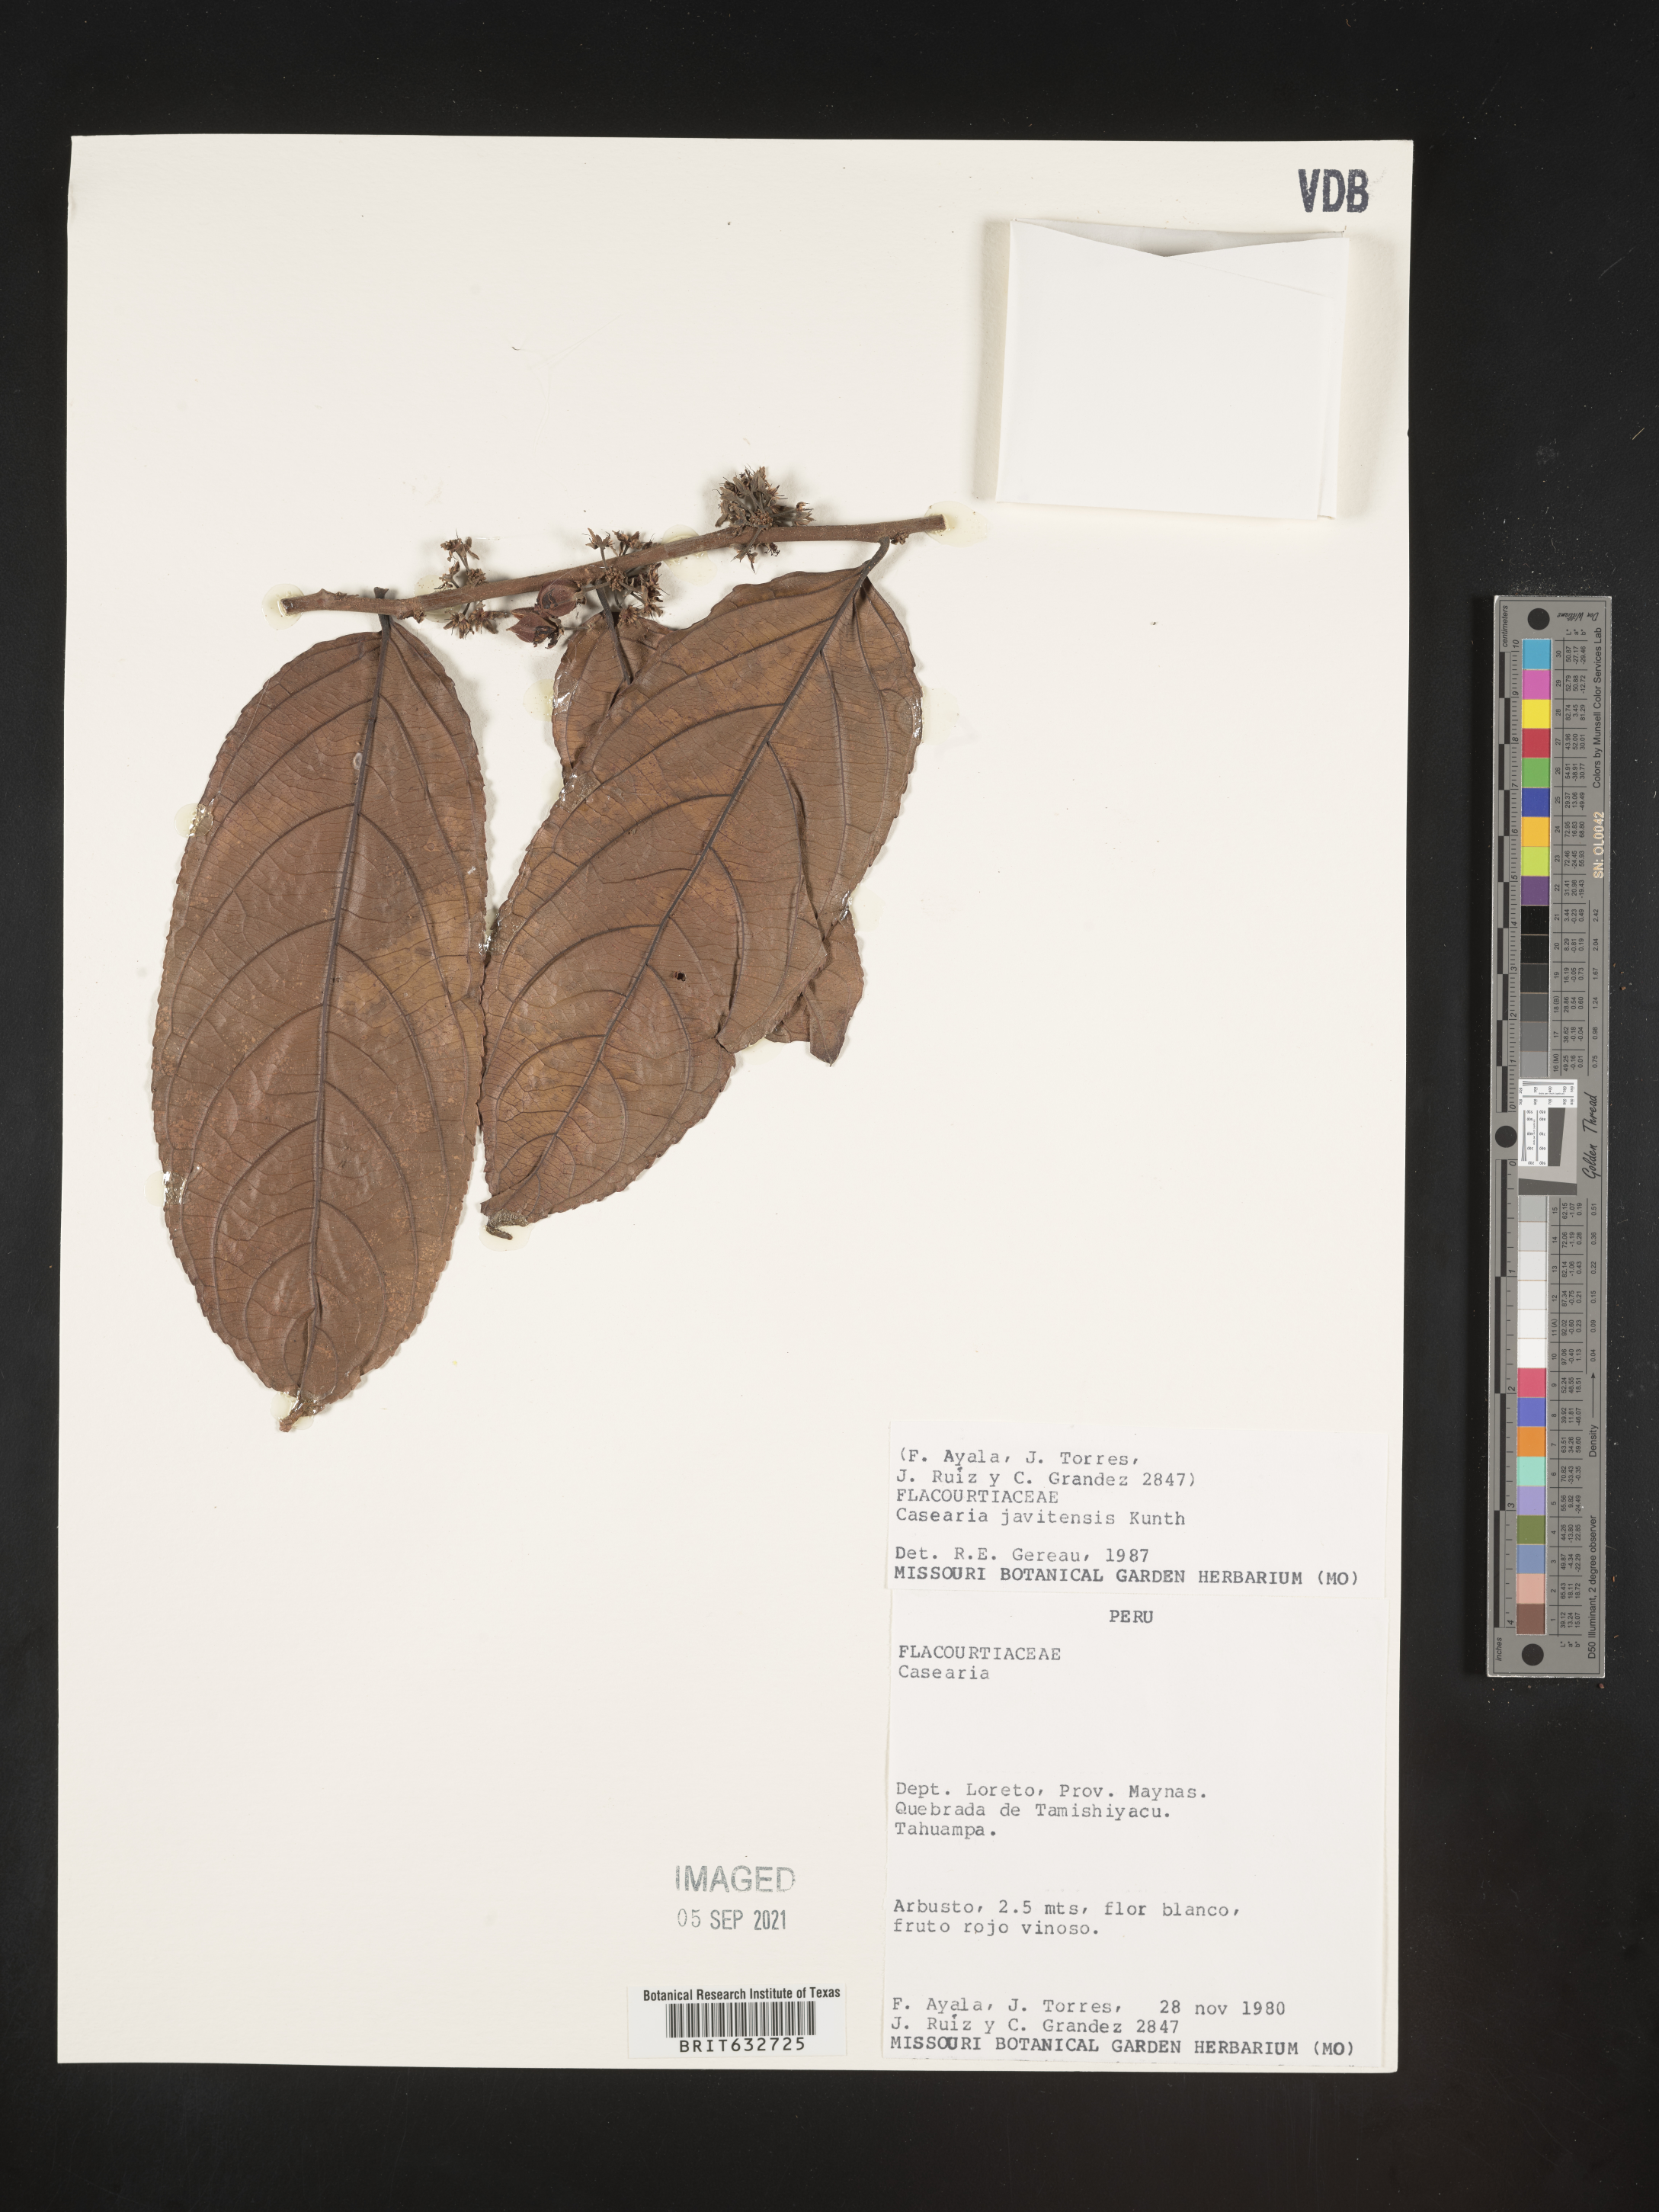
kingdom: Plantae
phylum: Tracheophyta
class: Magnoliopsida
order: Malpighiales
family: Salicaceae
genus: Casearia
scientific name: Casearia
